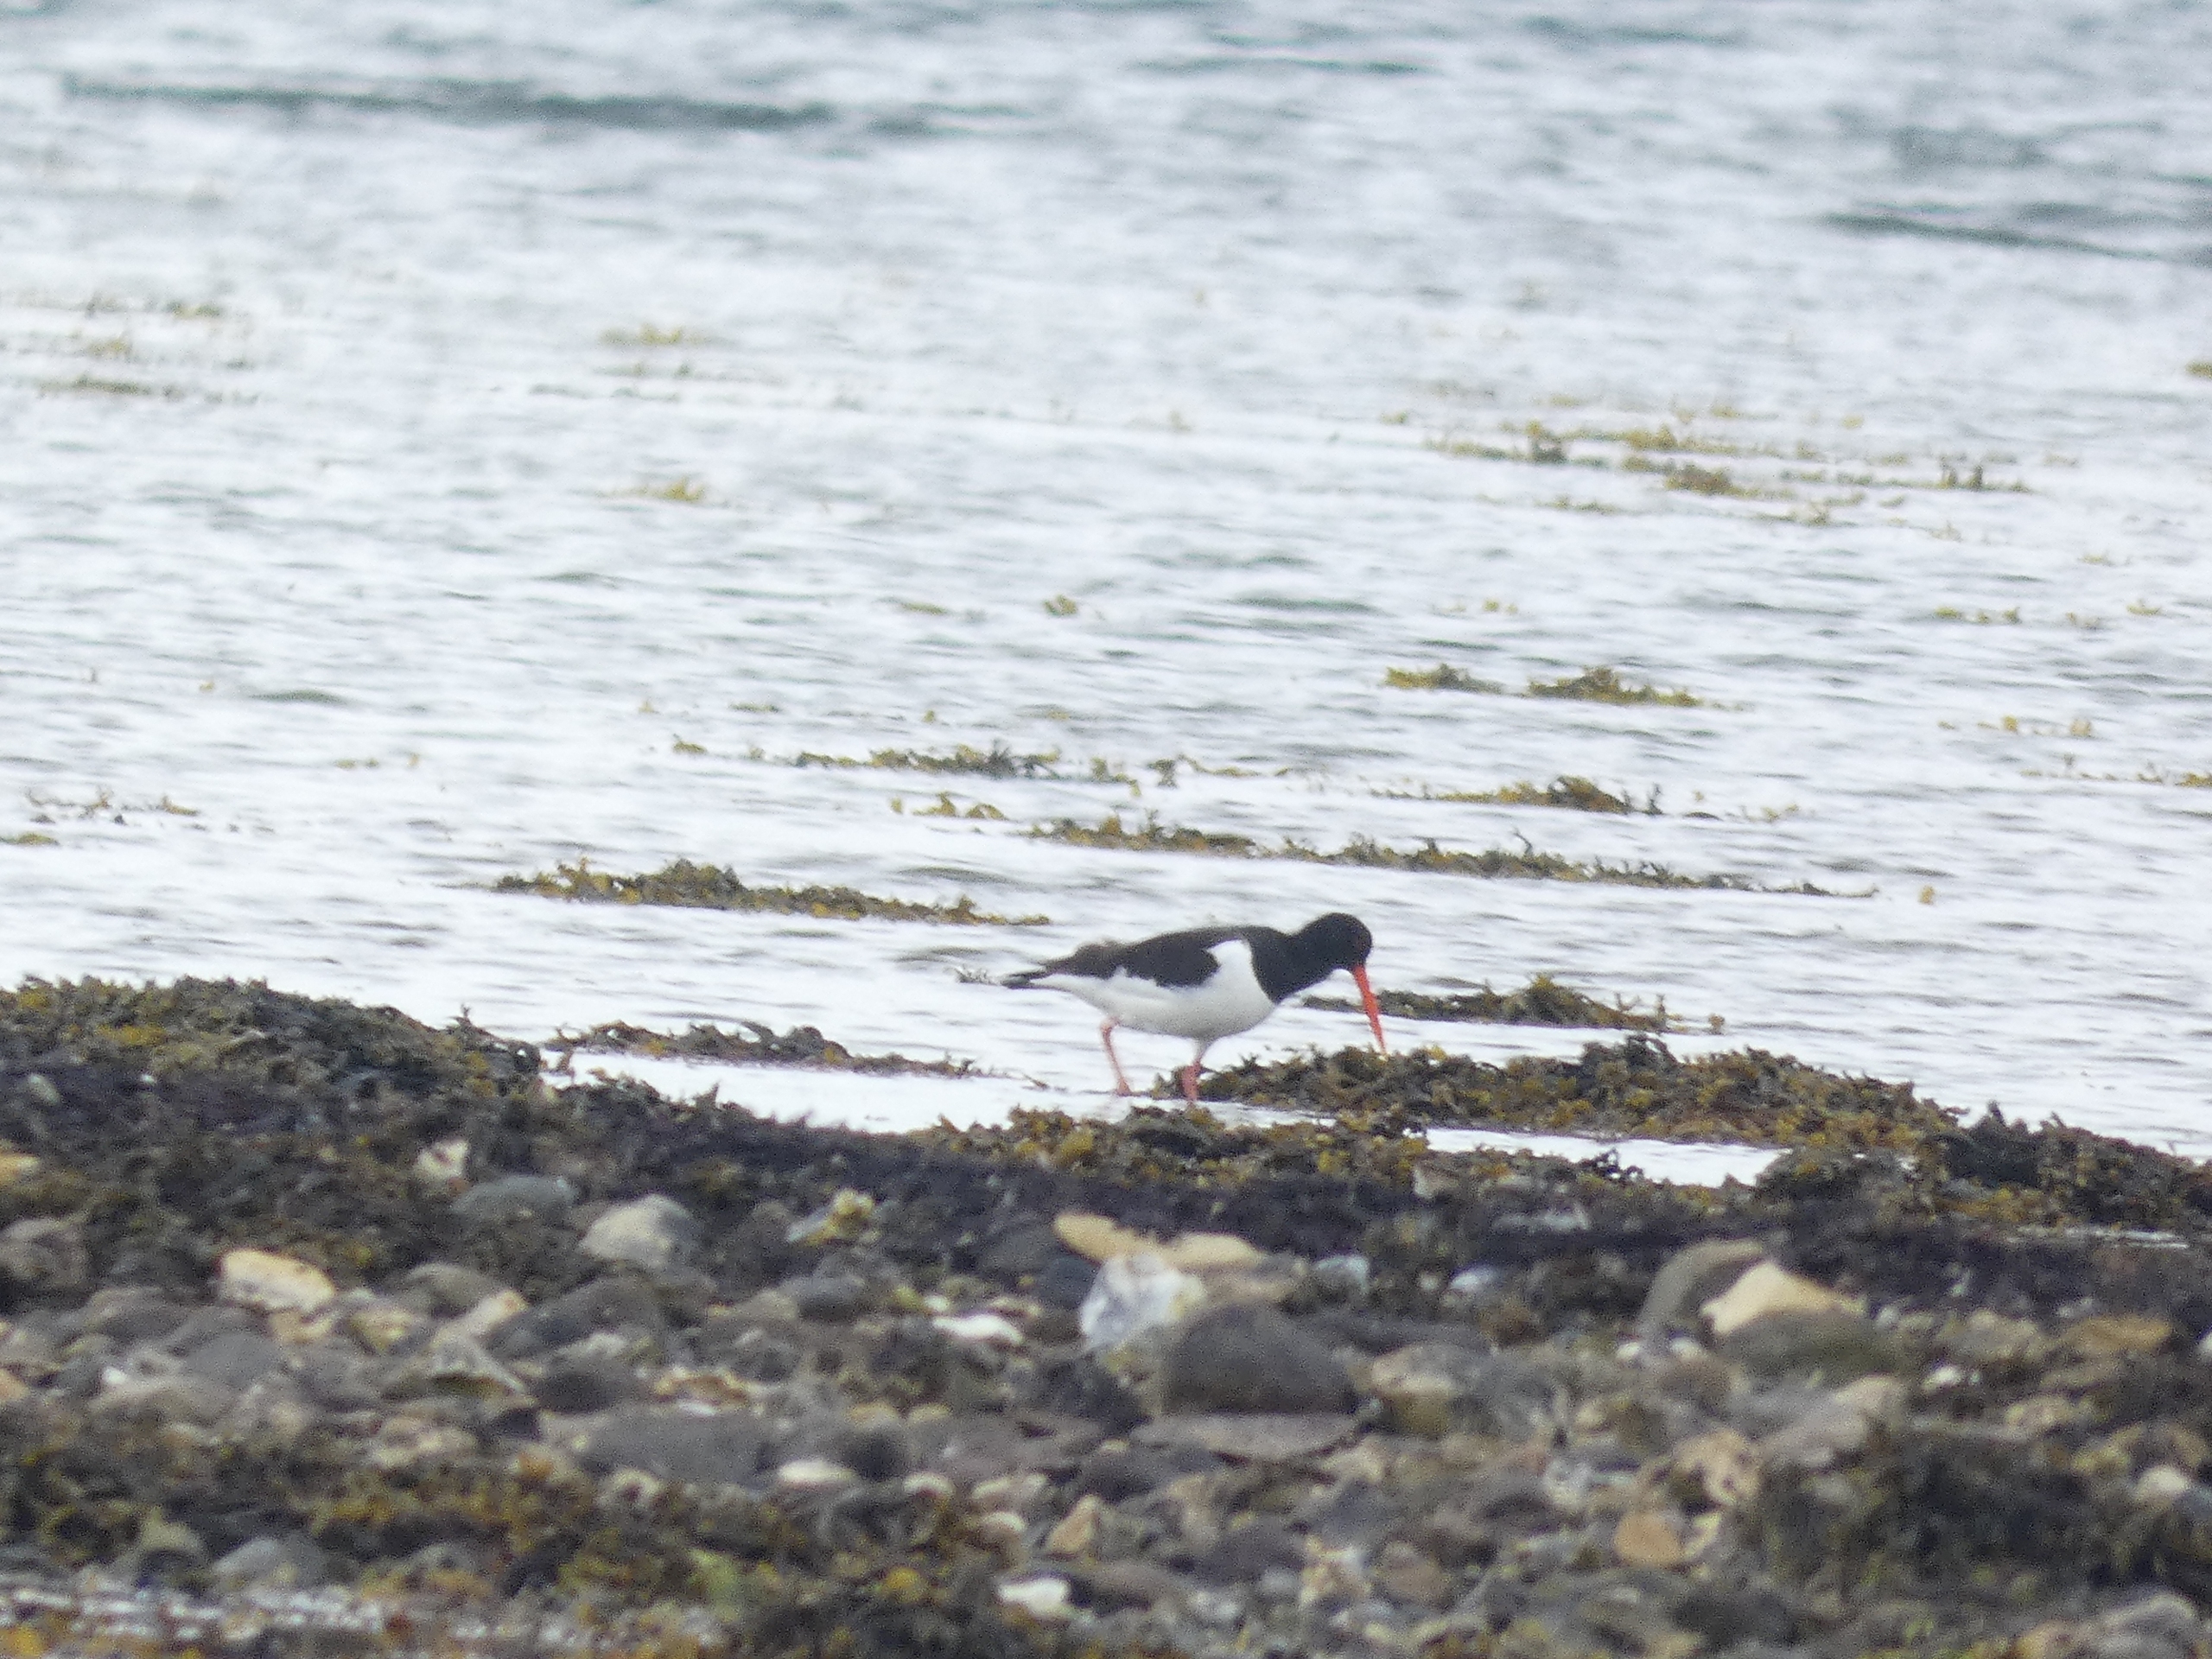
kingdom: Animalia
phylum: Chordata
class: Aves
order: Charadriiformes
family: Haematopodidae
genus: Haematopus
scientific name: Haematopus ostralegus
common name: Strandskade
